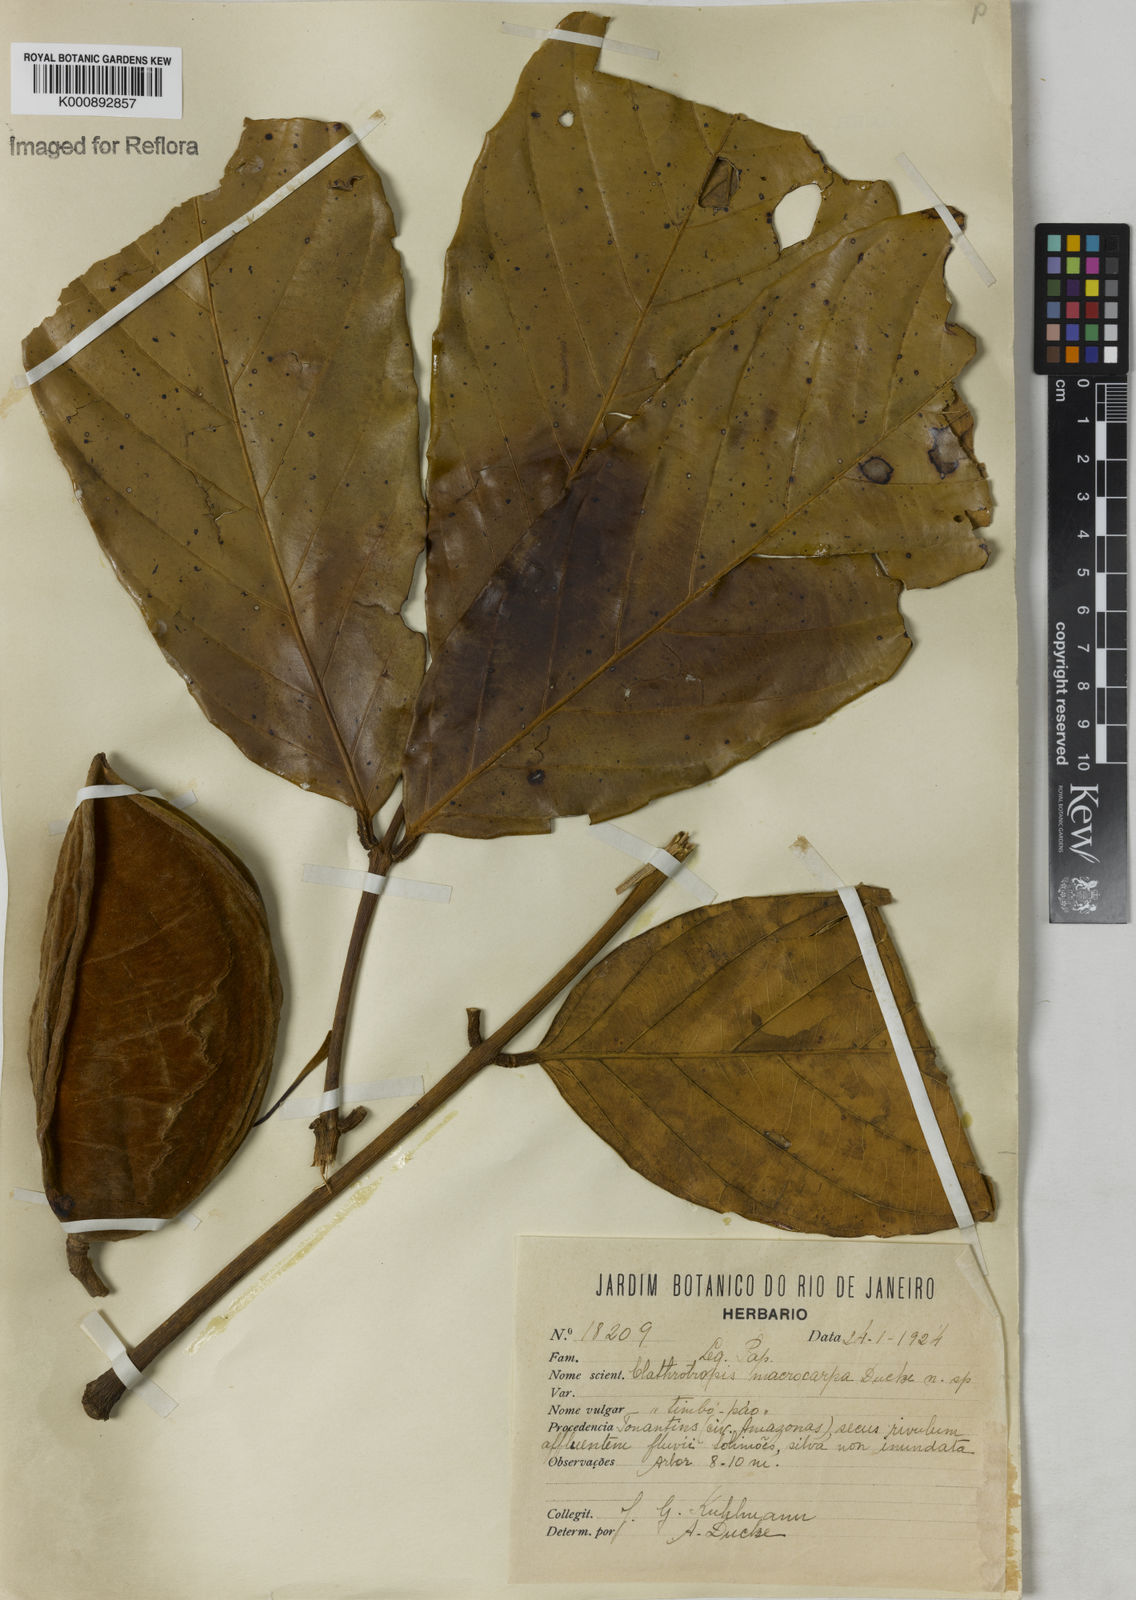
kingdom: Plantae
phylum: Tracheophyta
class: Magnoliopsida
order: Fabales
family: Fabaceae
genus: Clathrotropis
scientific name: Clathrotropis macrocarpa
